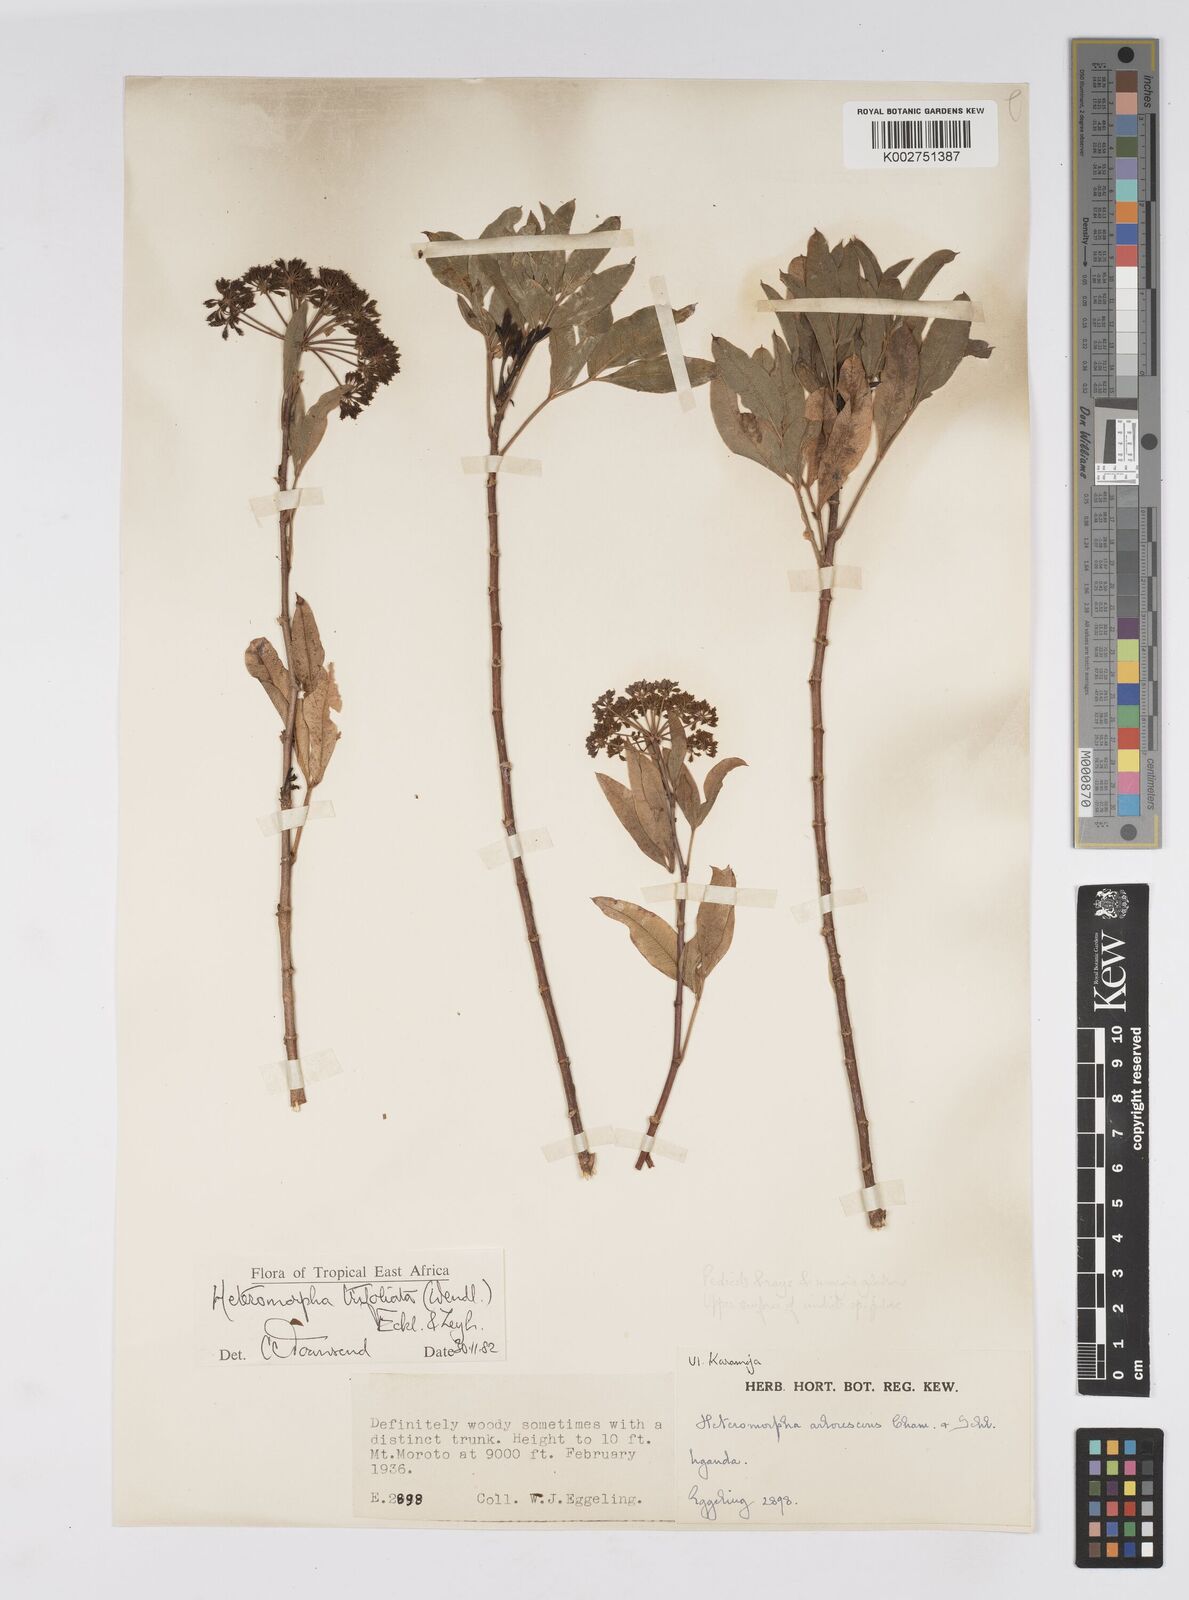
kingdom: Plantae
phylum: Tracheophyta
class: Magnoliopsida
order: Apiales
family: Apiaceae
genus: Heteromorpha
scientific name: Heteromorpha arborescens
